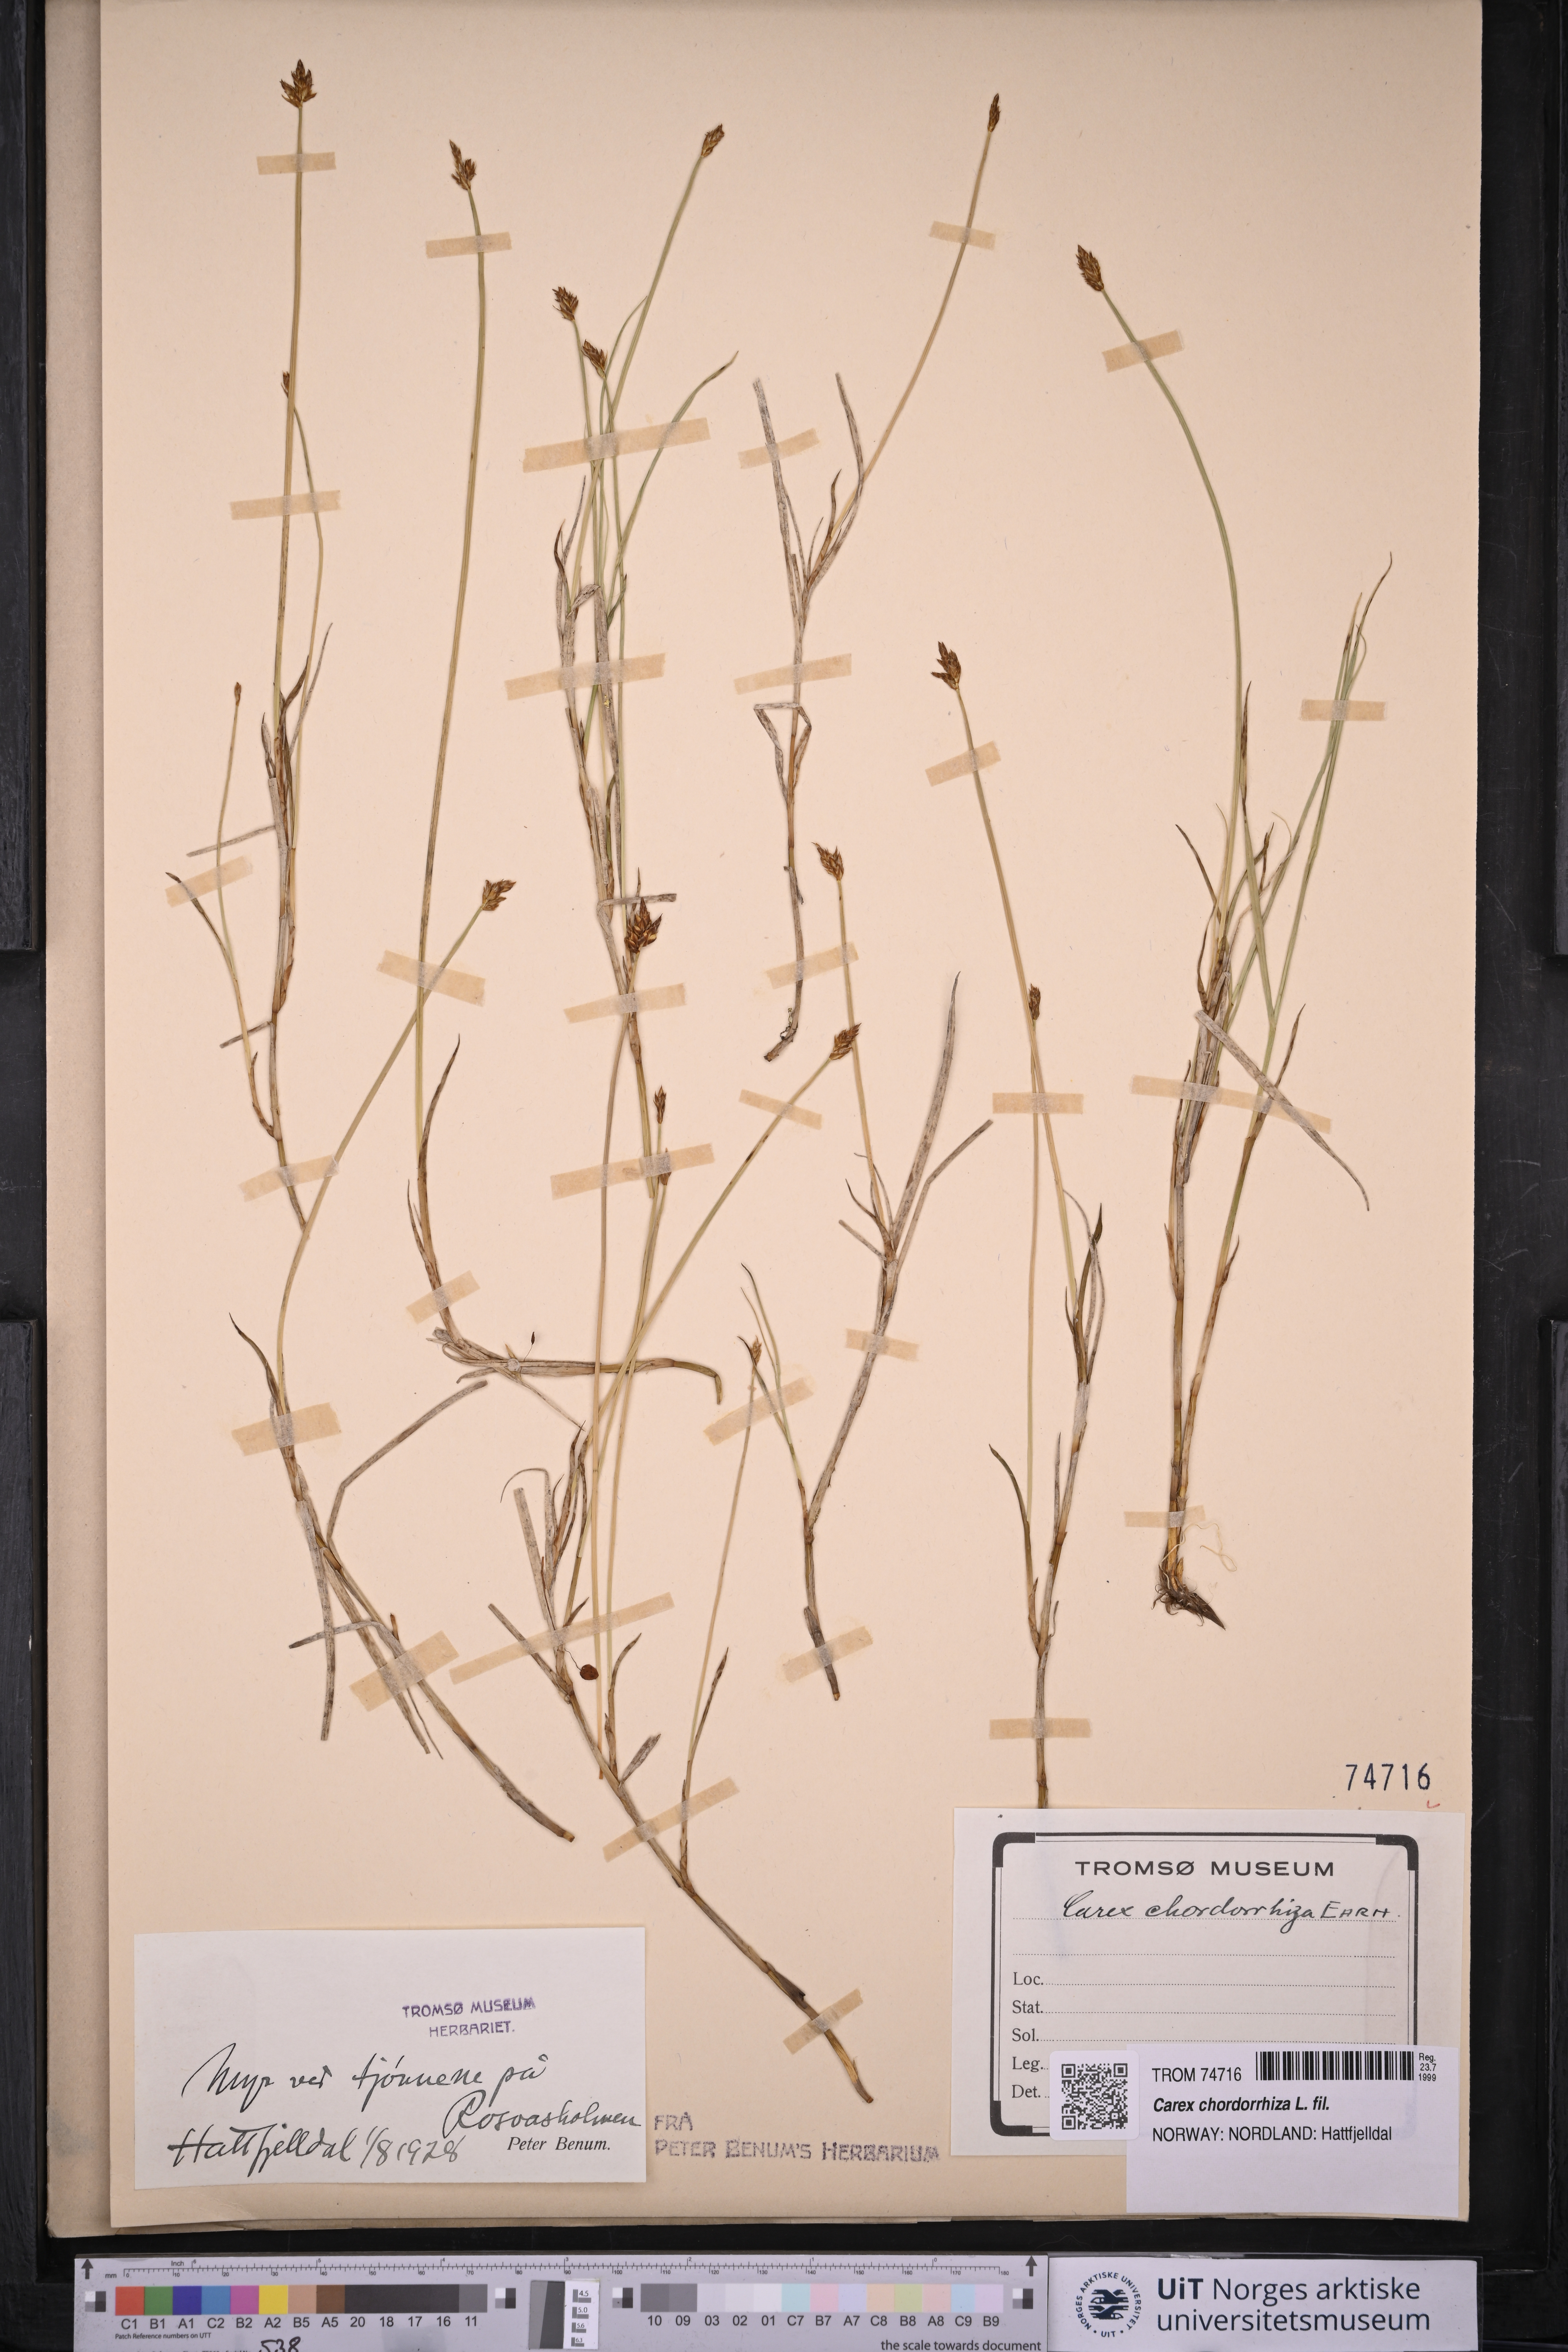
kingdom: Plantae
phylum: Tracheophyta
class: Liliopsida
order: Poales
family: Cyperaceae
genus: Carex
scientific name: Carex chordorrhiza
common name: String sedge
